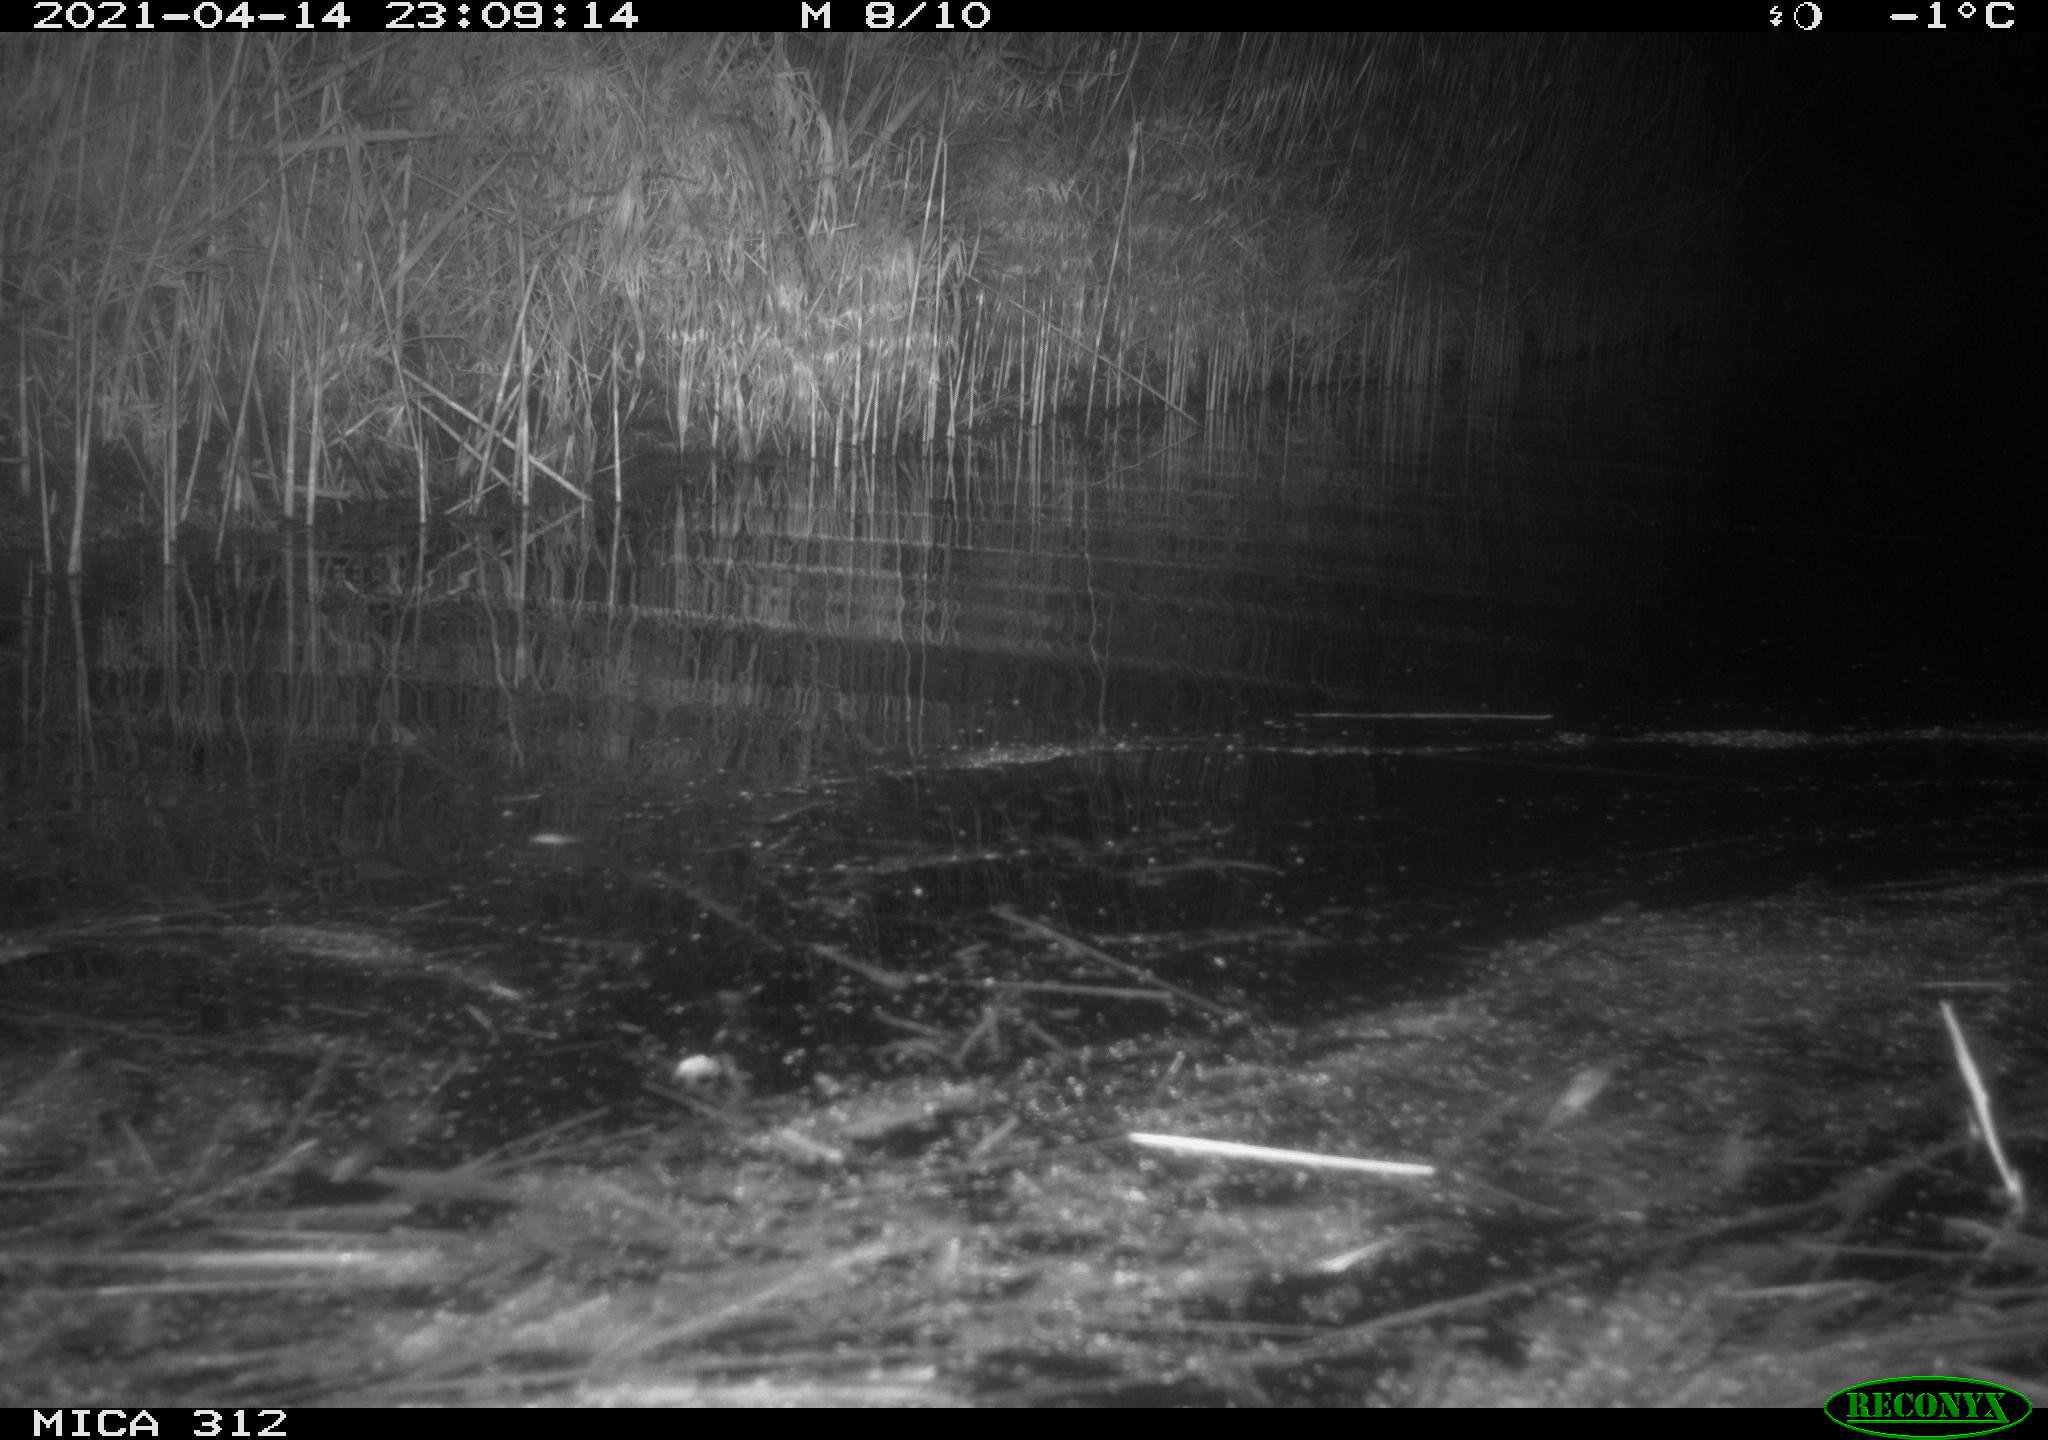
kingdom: Animalia
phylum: Chordata
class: Aves
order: Gruiformes
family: Rallidae
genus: Fulica
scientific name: Fulica atra
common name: Eurasian coot
